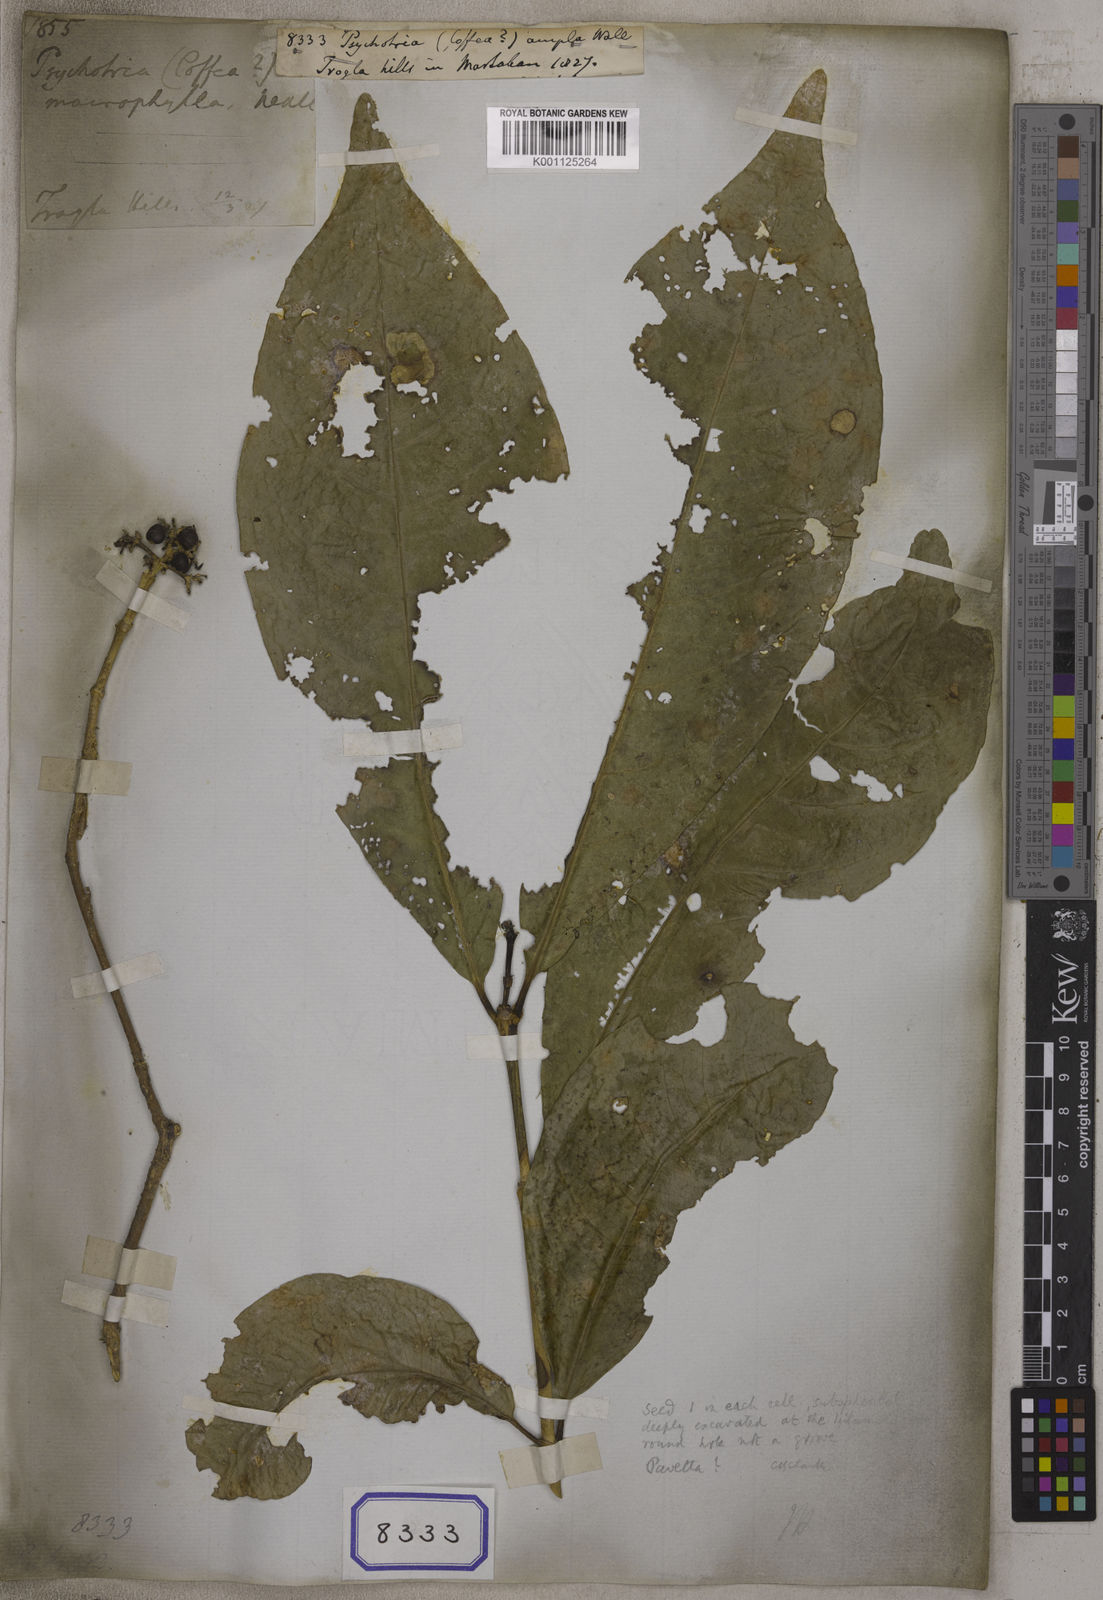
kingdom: Plantae
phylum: Tracheophyta
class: Magnoliopsida
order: Gentianales
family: Rubiaceae
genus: Psychotria
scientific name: Psychotria
